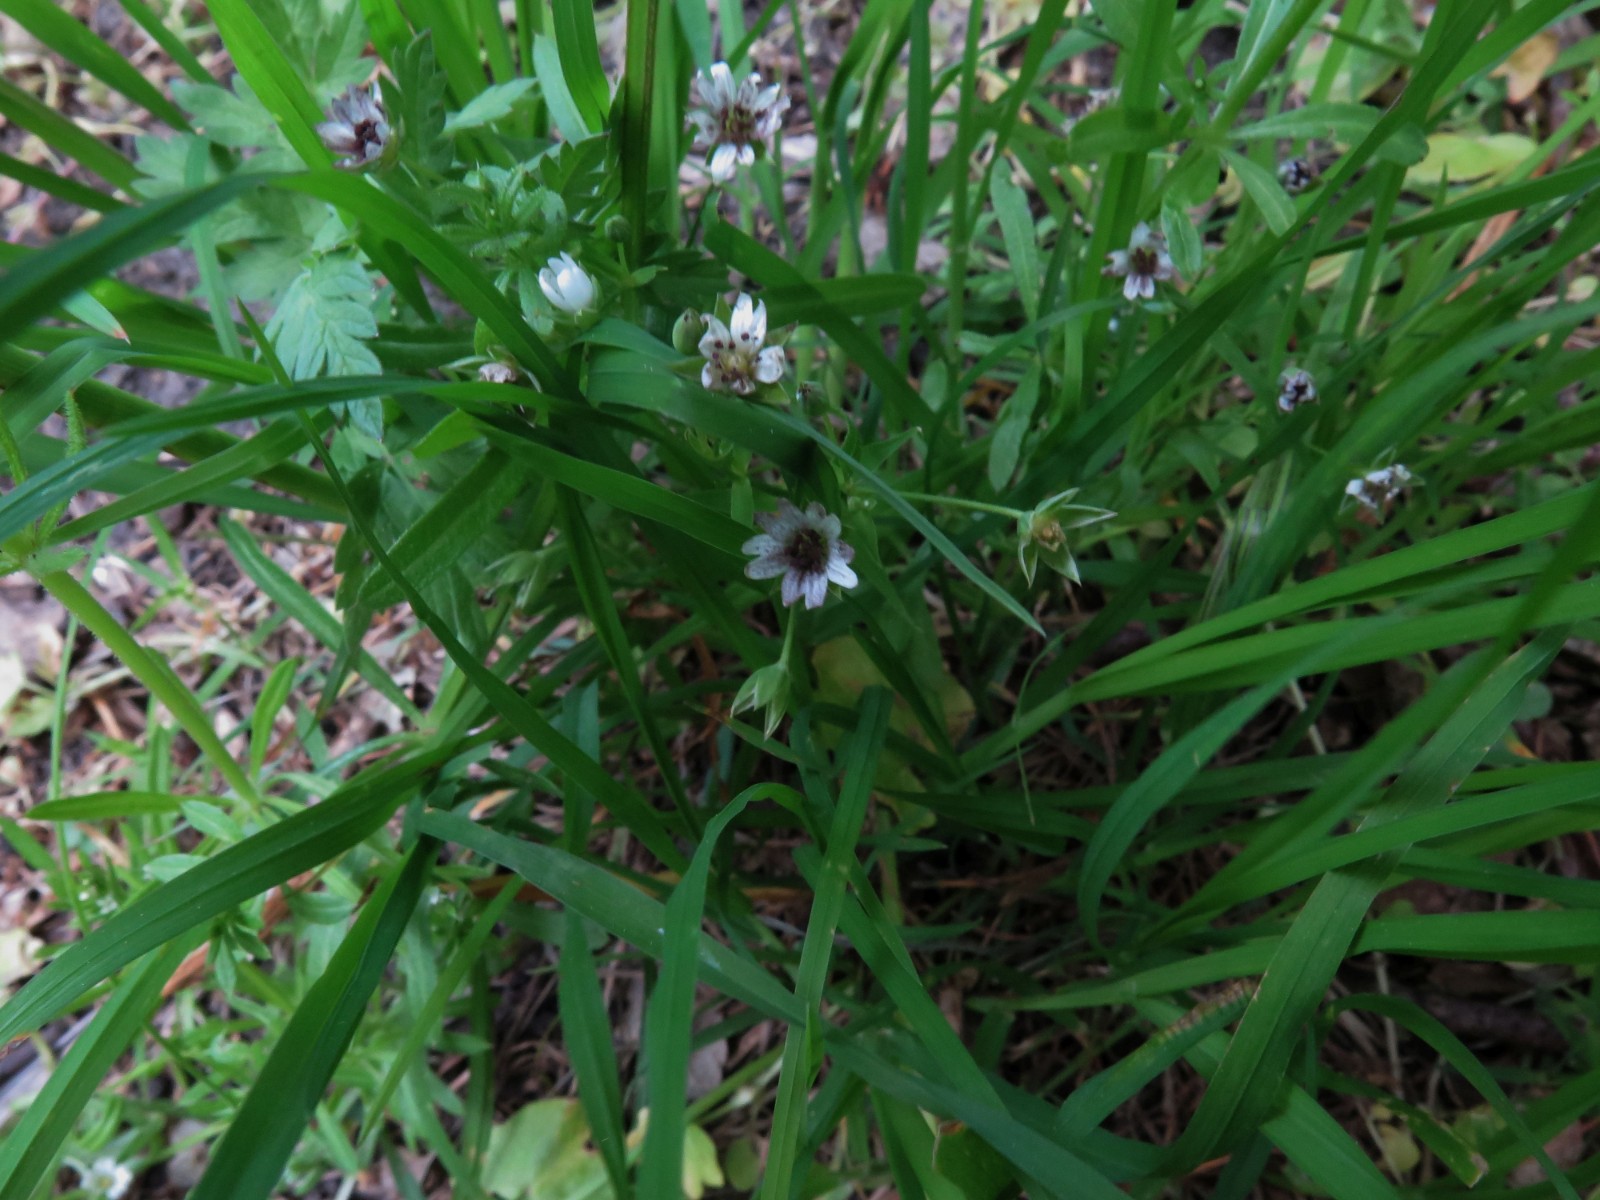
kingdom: Fungi
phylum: Basidiomycota
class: Microbotryomycetes
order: Microbotryales
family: Microbotryaceae
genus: Microbotryum
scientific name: Microbotryum stellariae
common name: fladstjerne-støvbladrust
